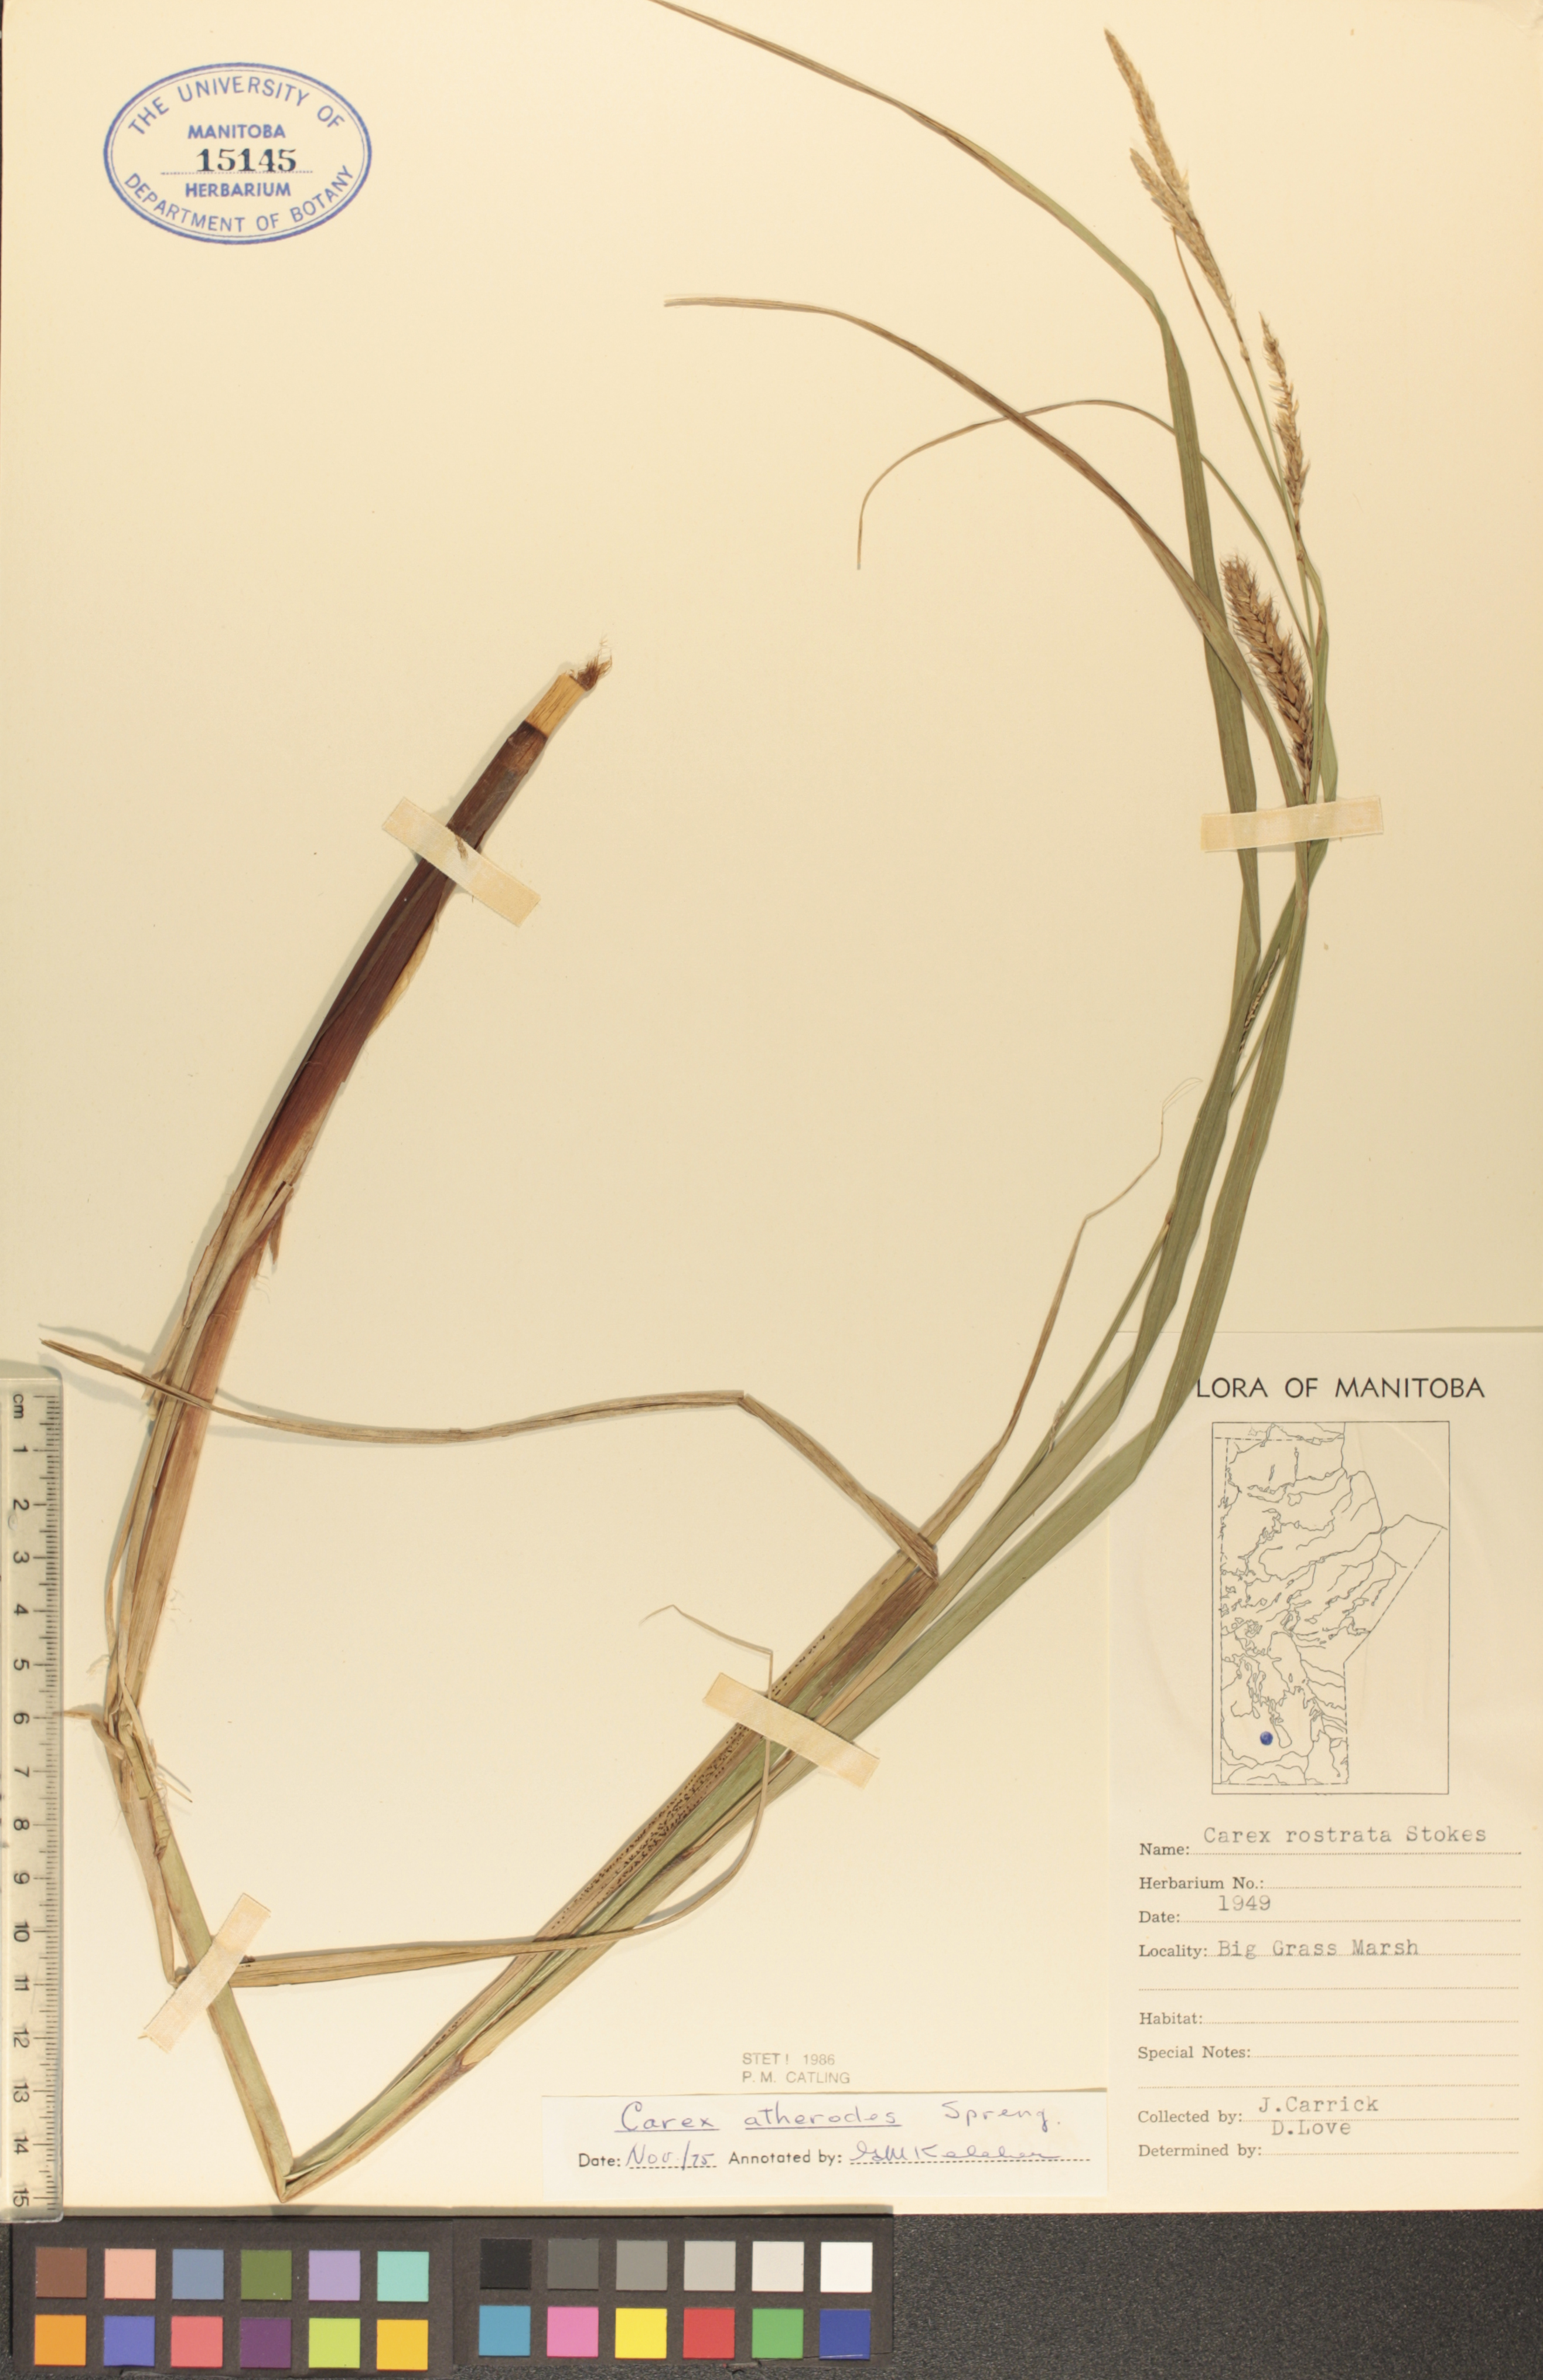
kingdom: Plantae
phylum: Tracheophyta
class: Liliopsida
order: Poales
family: Cyperaceae
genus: Carex
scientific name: Carex atherodes
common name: Wheat sedge
